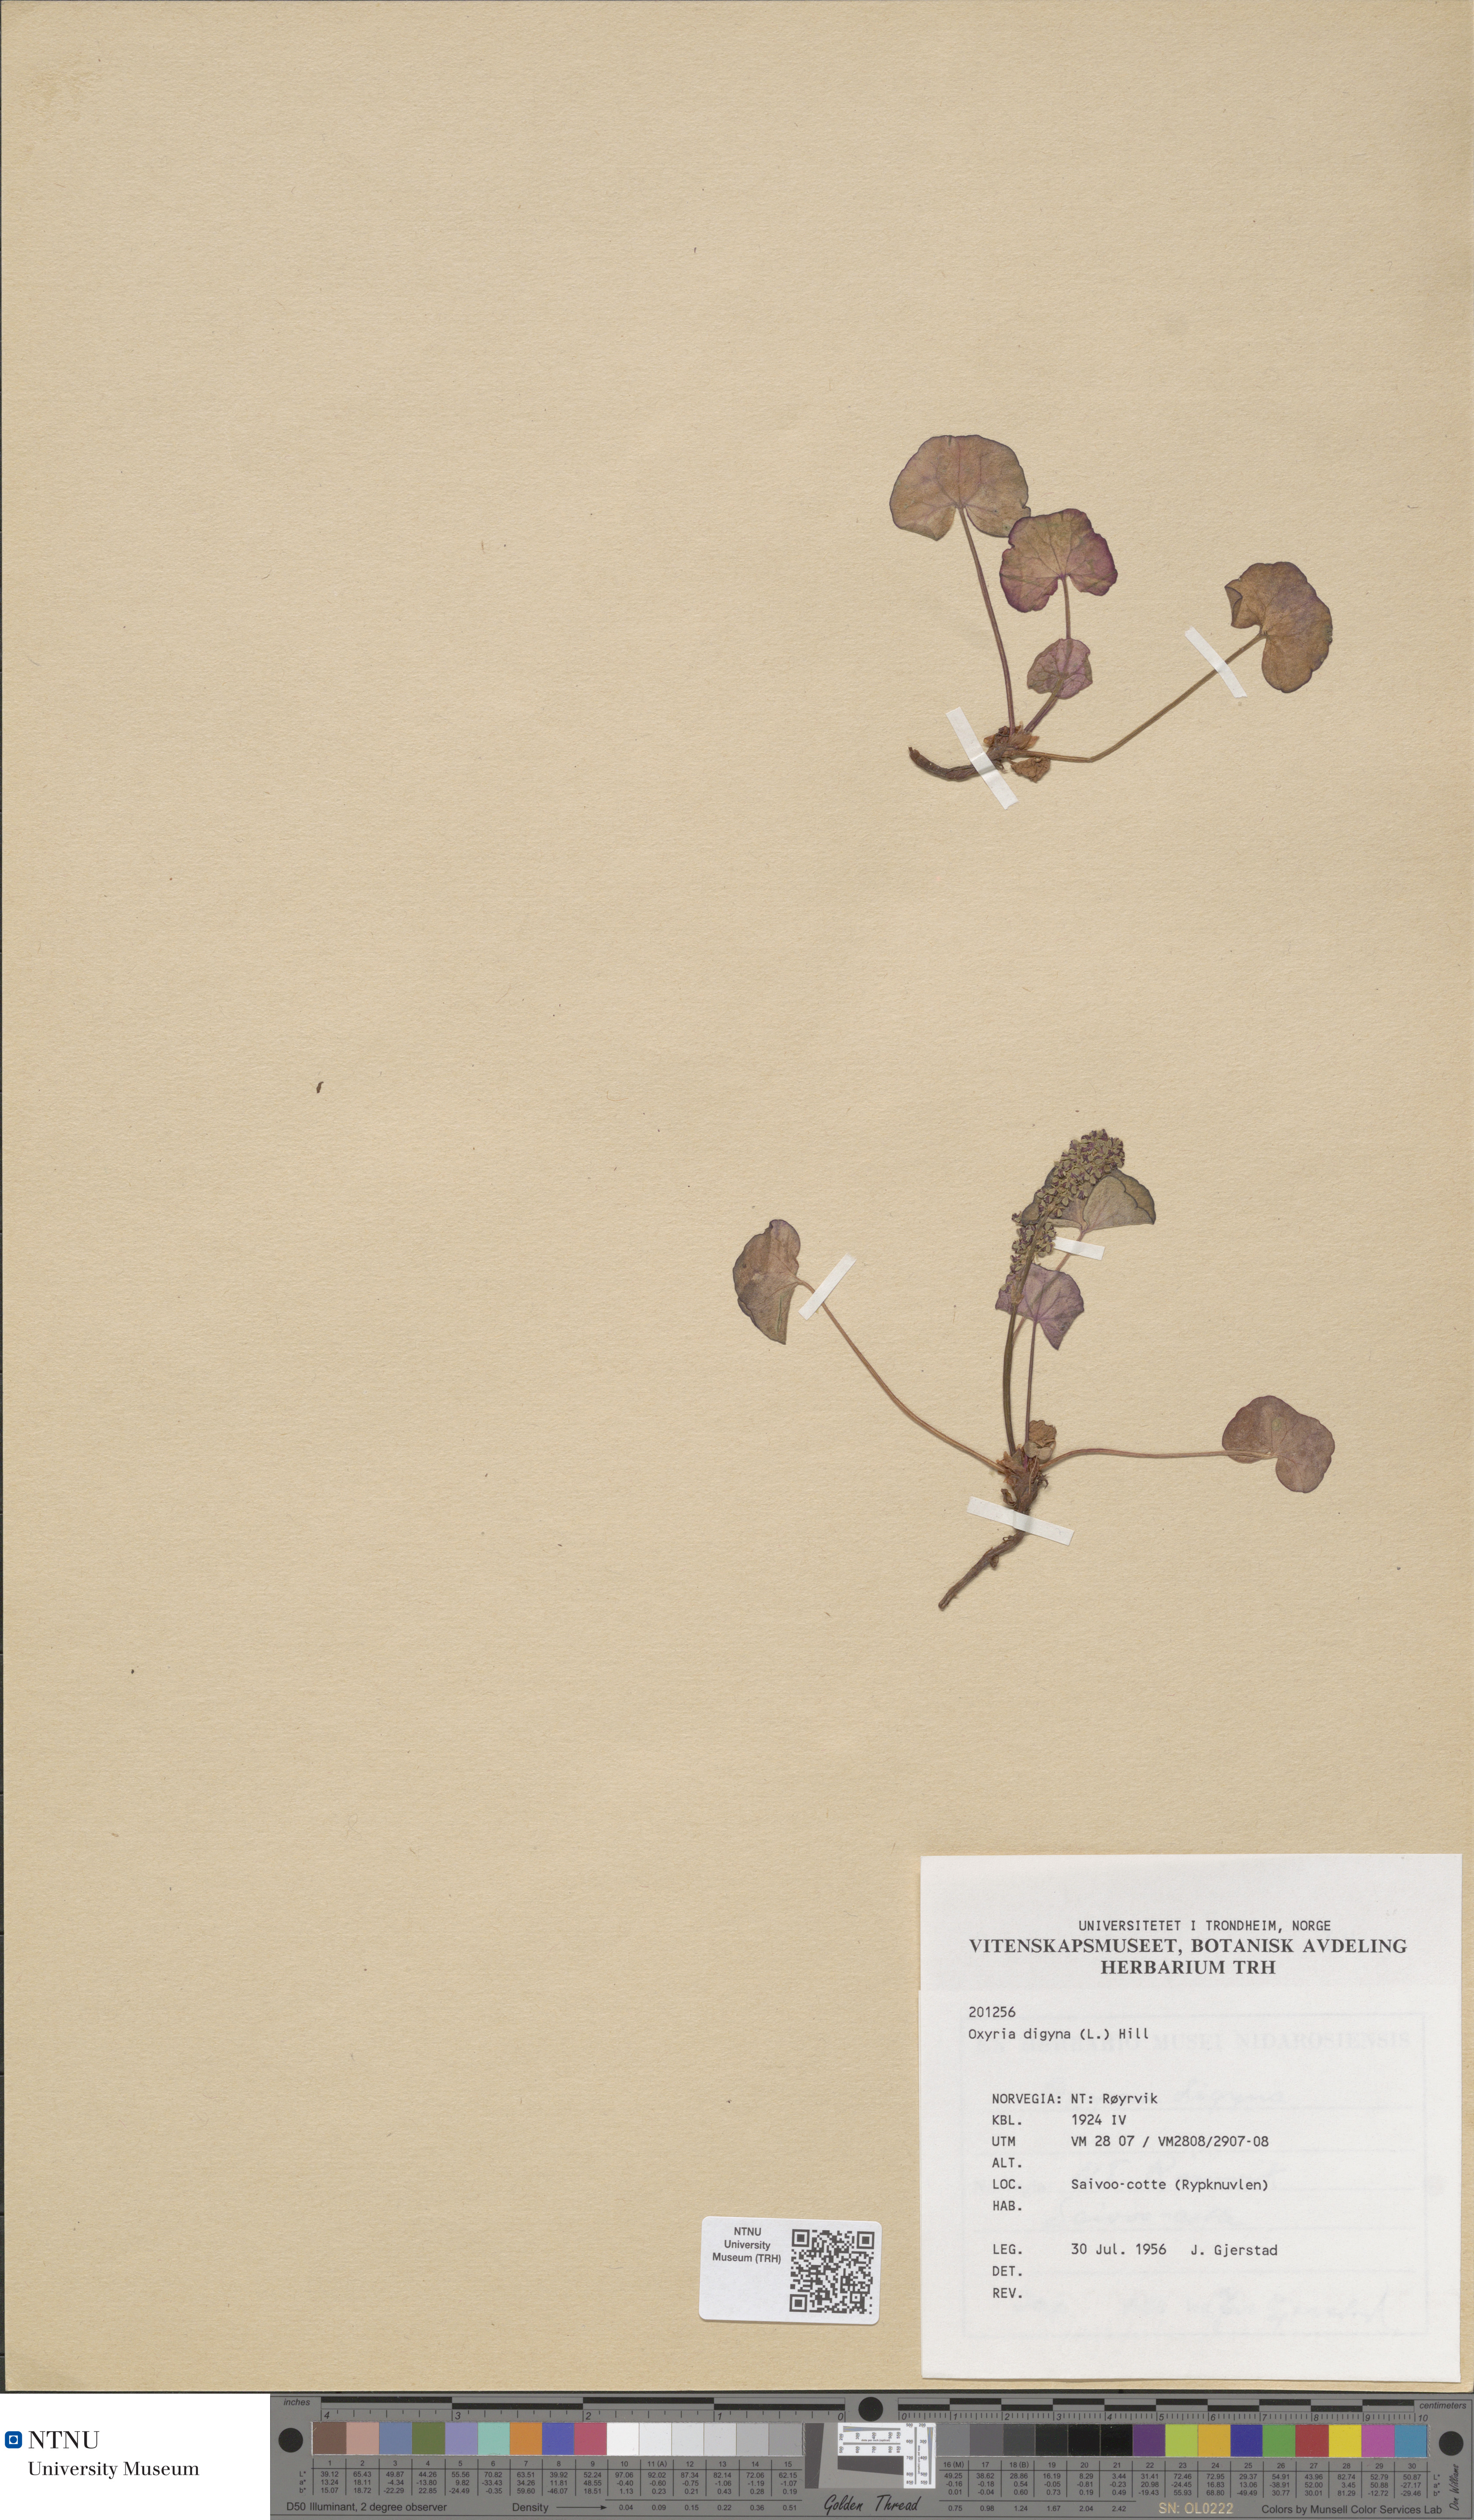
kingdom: Plantae
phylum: Tracheophyta
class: Magnoliopsida
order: Caryophyllales
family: Polygonaceae
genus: Oxyria
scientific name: Oxyria digyna
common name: Alpine mountain-sorrel
